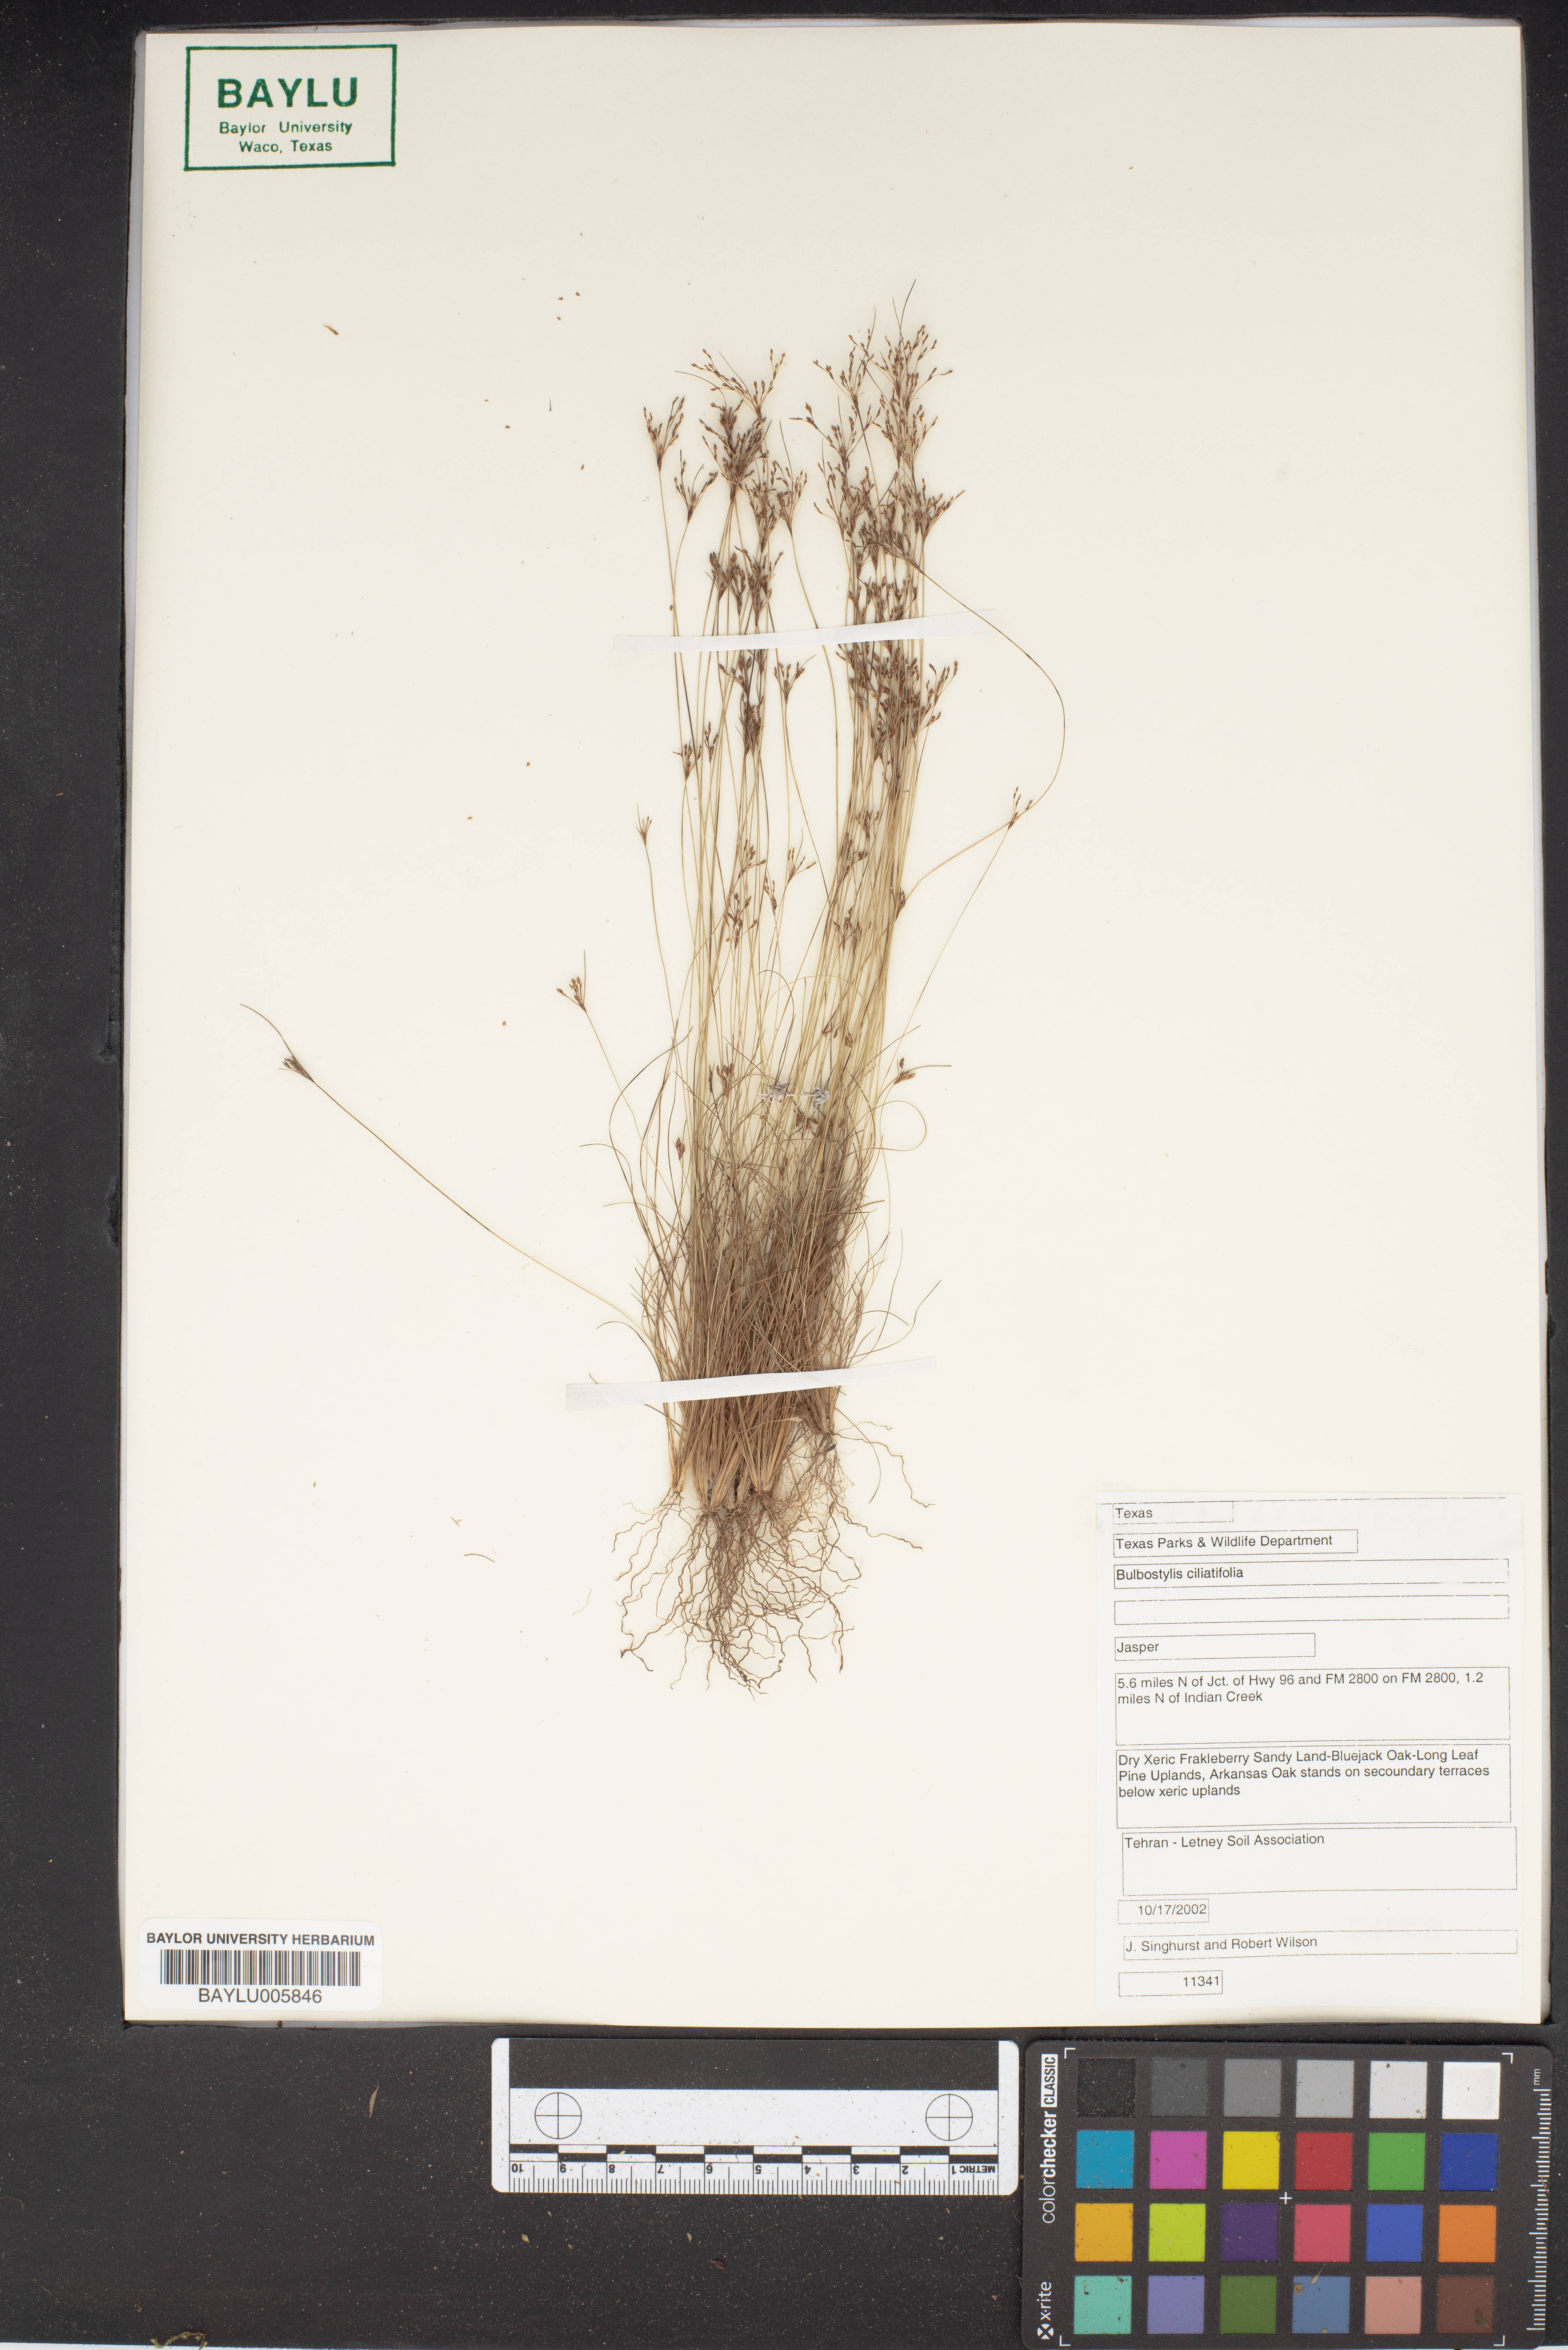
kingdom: Plantae
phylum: Tracheophyta
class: Liliopsida
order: Poales
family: Cyperaceae
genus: Bulbostylis
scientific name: Bulbostylis ciliatifolia
